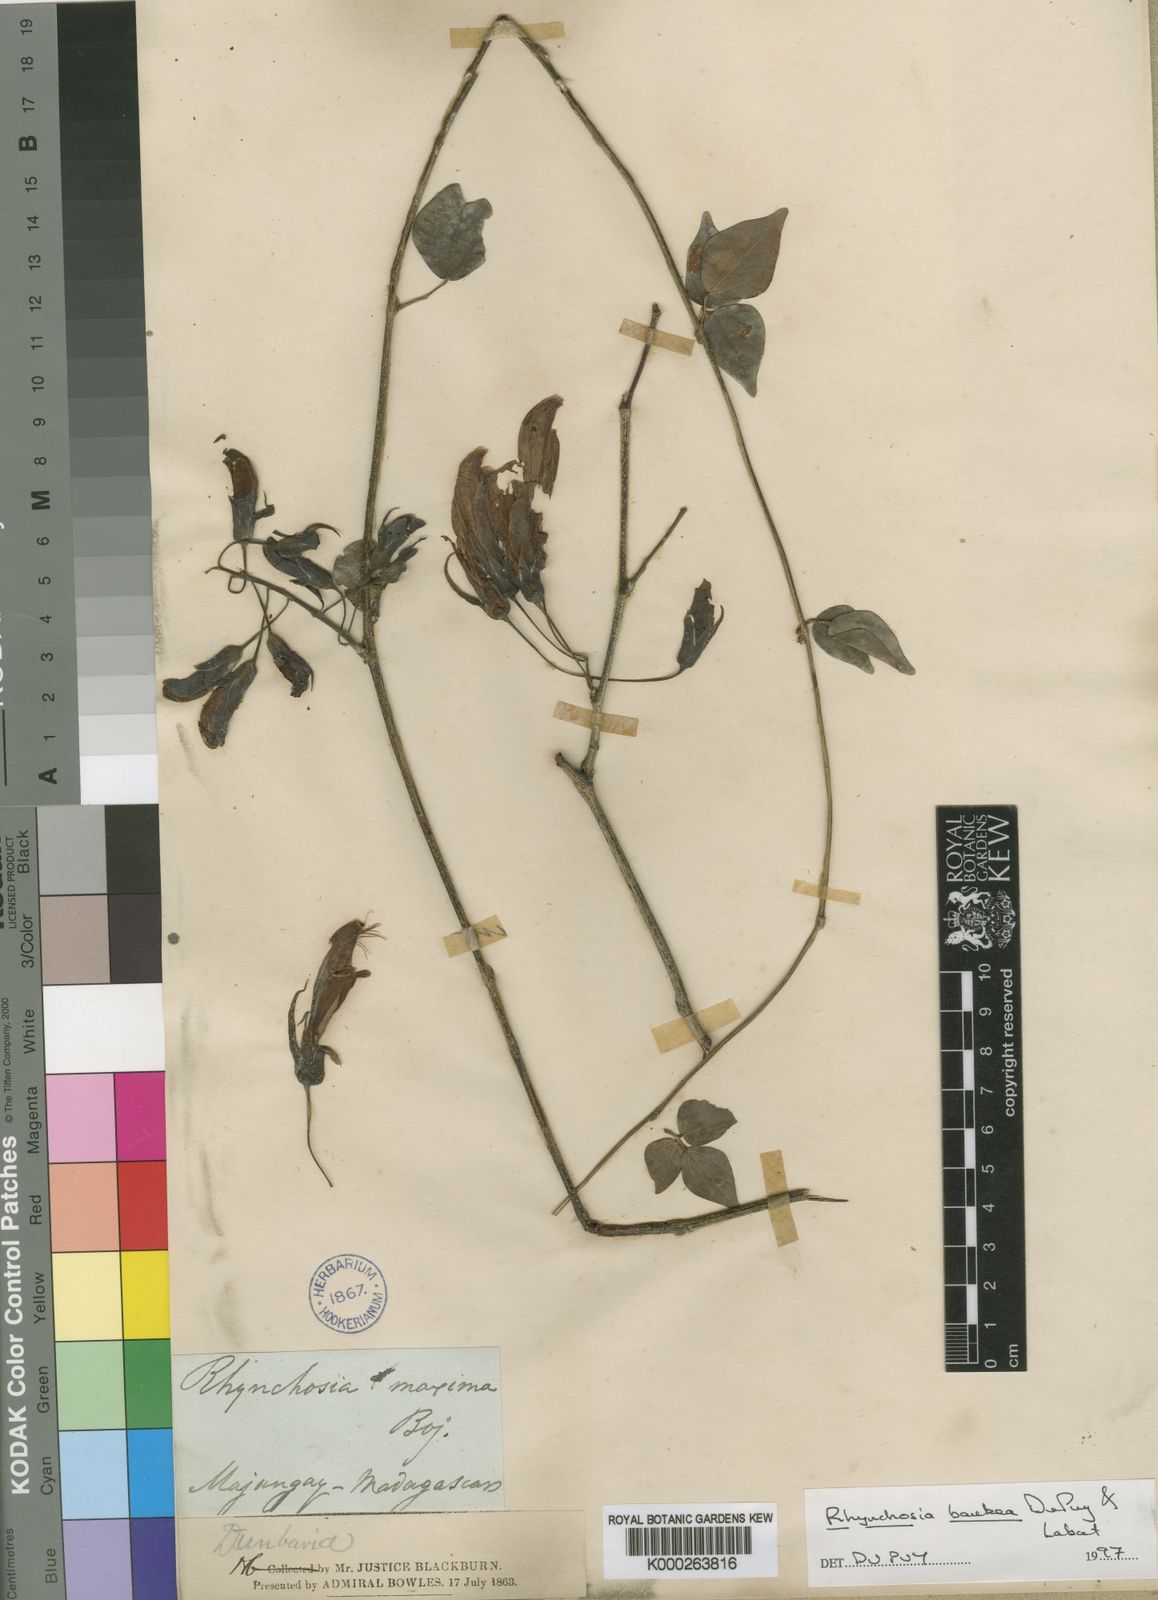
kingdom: Plantae
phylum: Tracheophyta
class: Magnoliopsida
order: Fabales
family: Fabaceae
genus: Rhynchosia
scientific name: Rhynchosia baukea
